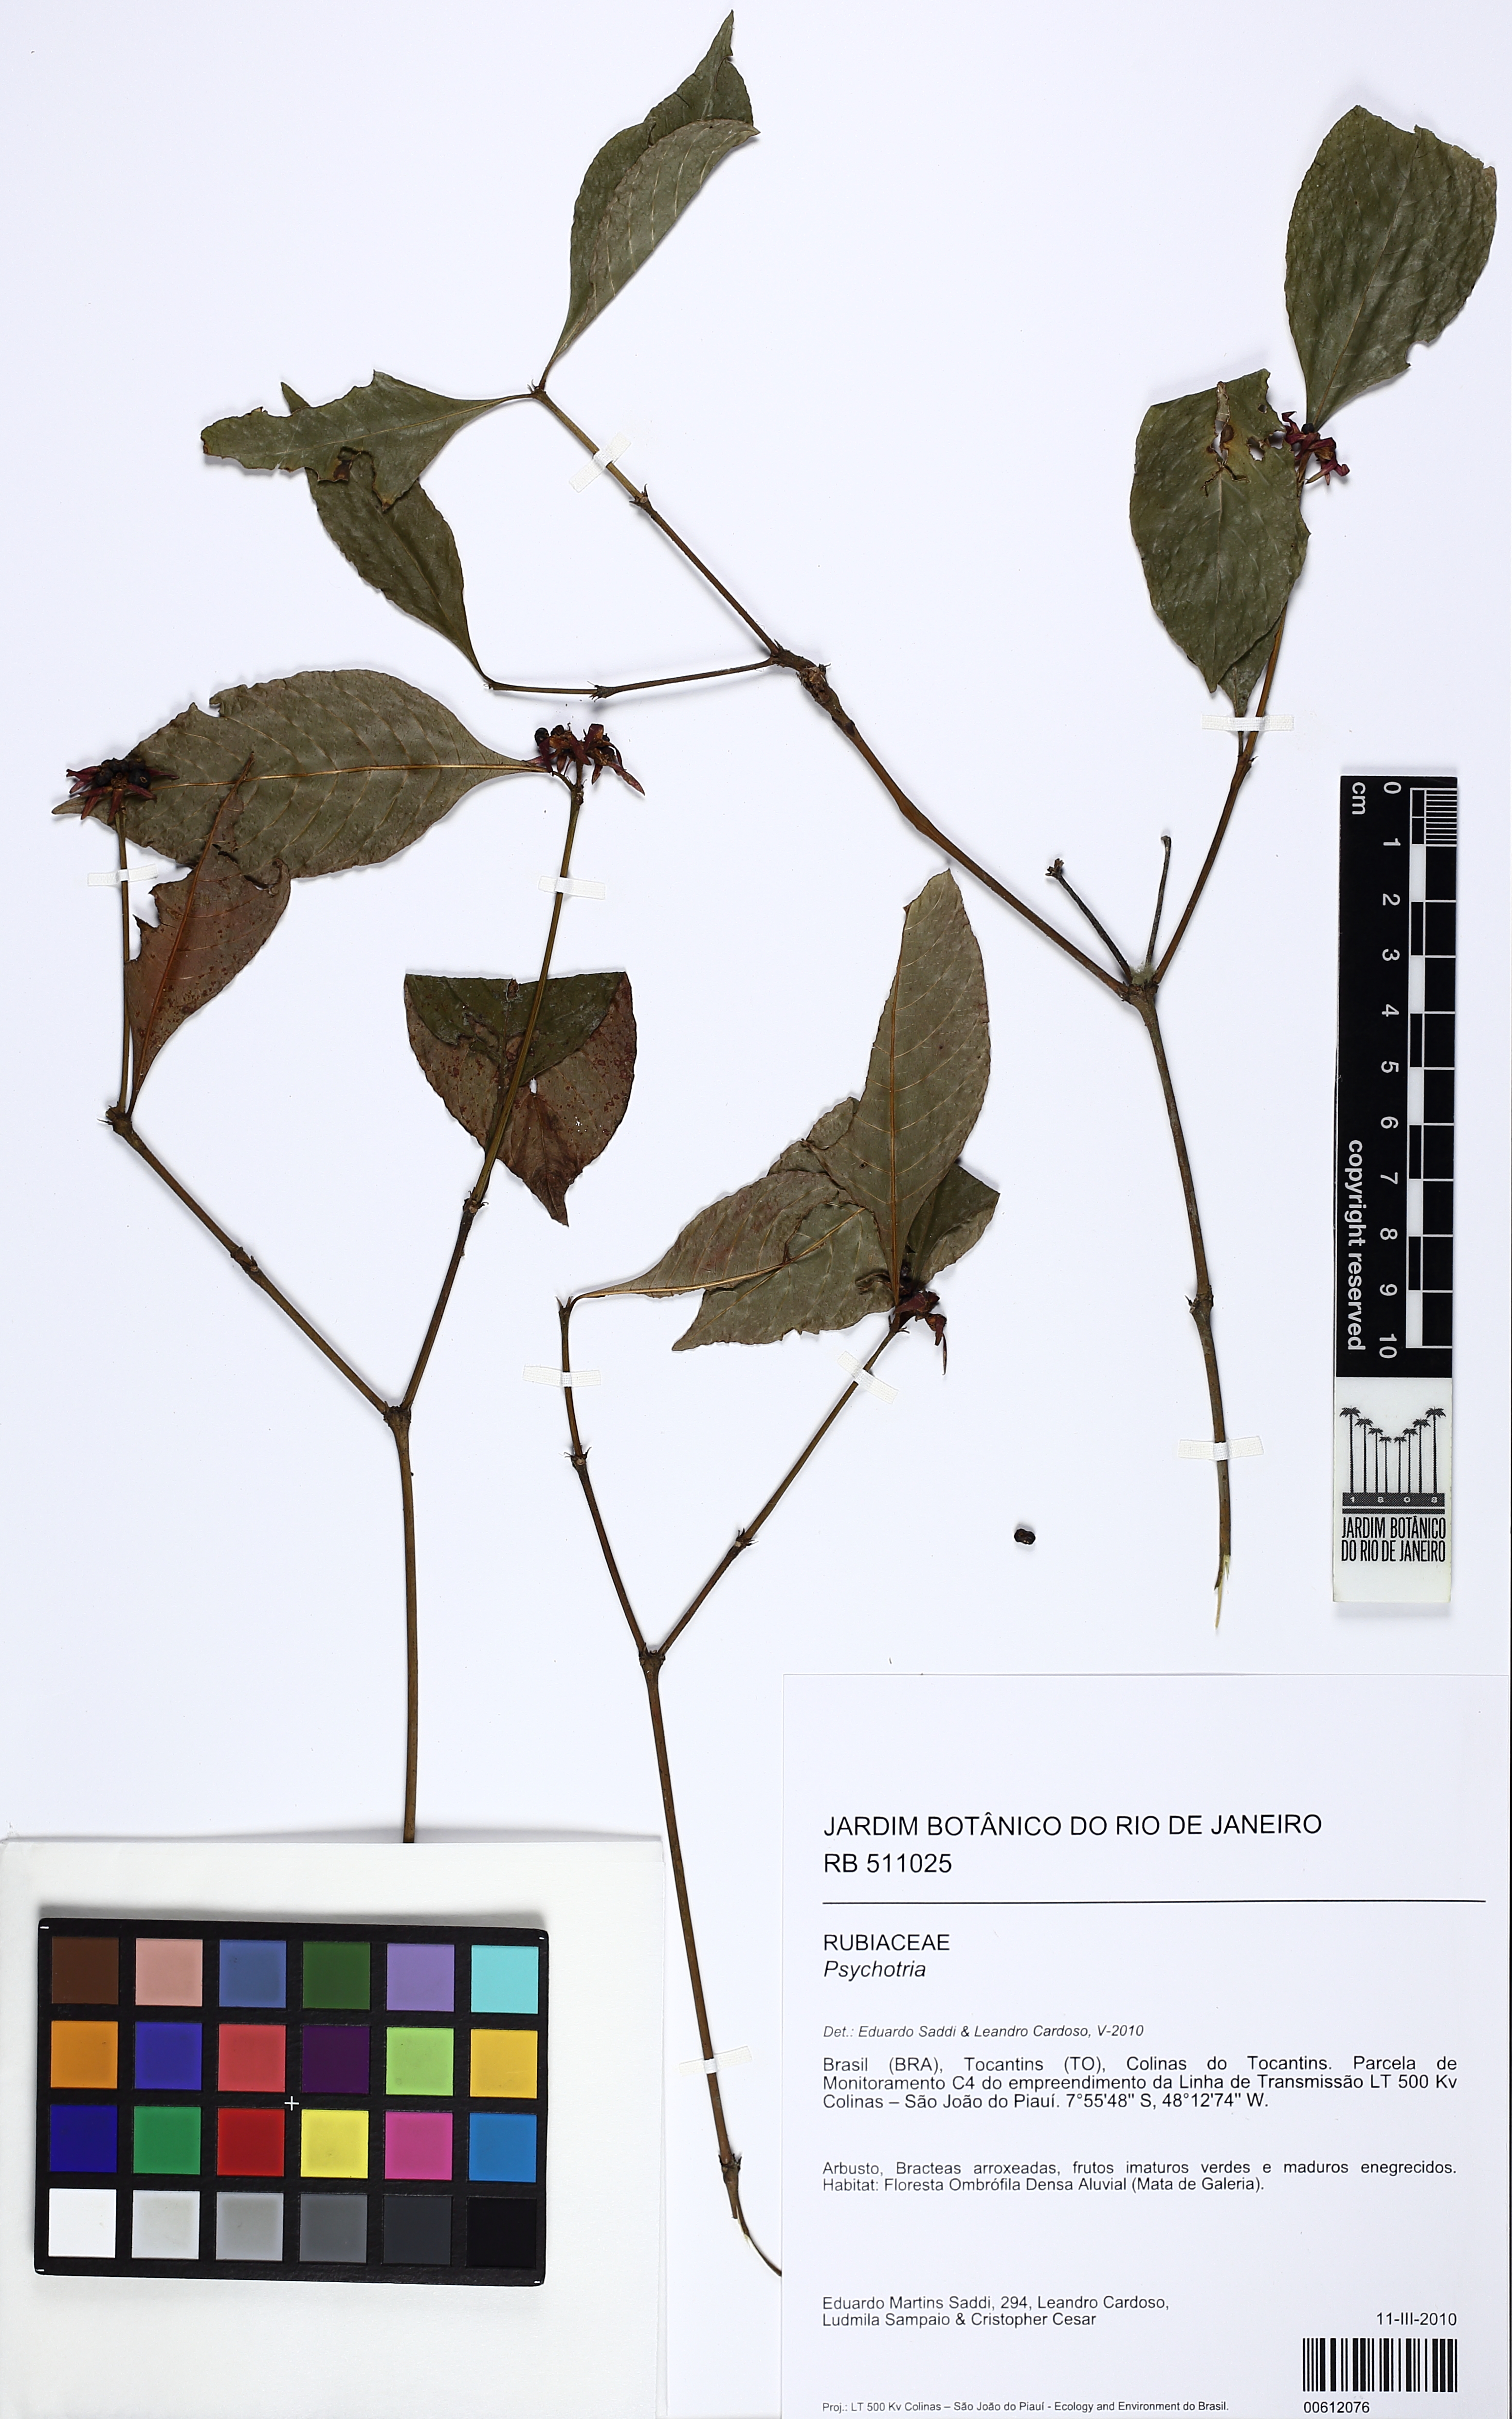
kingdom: Plantae
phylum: Tracheophyta
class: Magnoliopsida
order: Gentianales
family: Rubiaceae
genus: Palicourea
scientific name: Palicourea hoffmannseggiana
